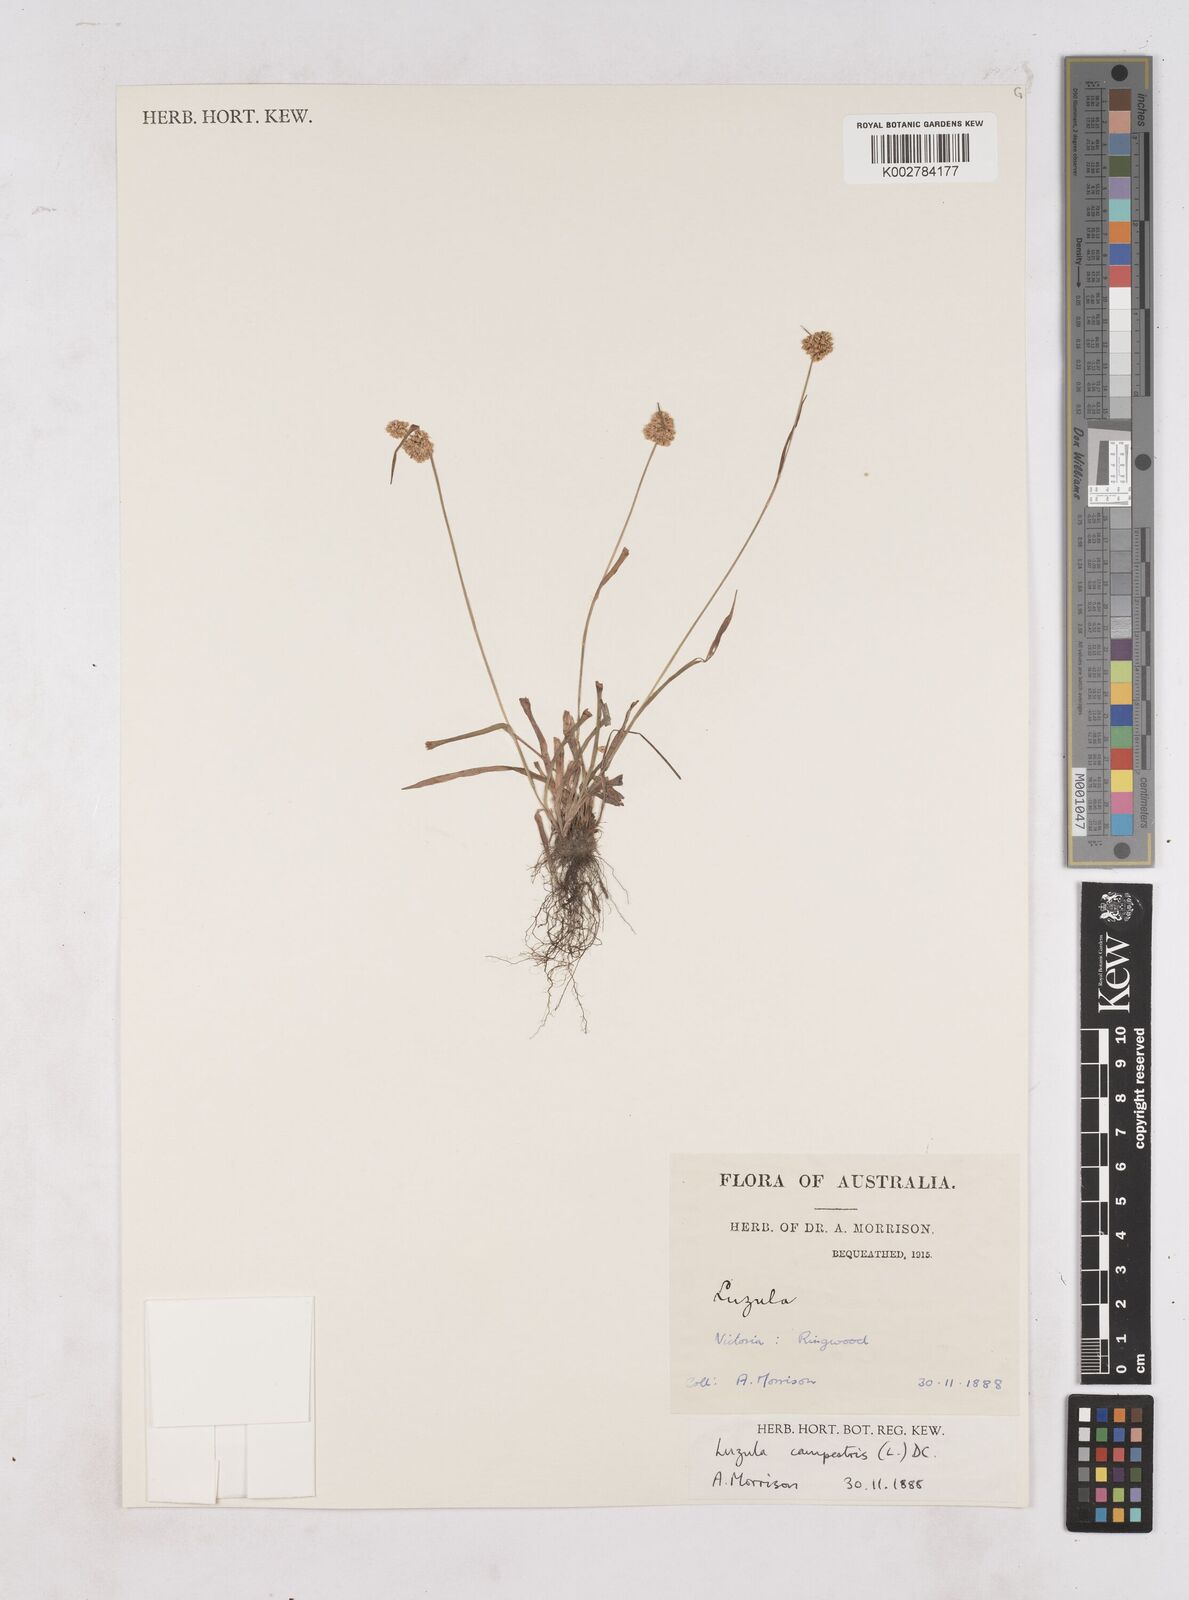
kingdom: Plantae
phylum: Tracheophyta
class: Liliopsida
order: Poales
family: Juncaceae
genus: Luzula
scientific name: Luzula campestris
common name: Field wood-rush
